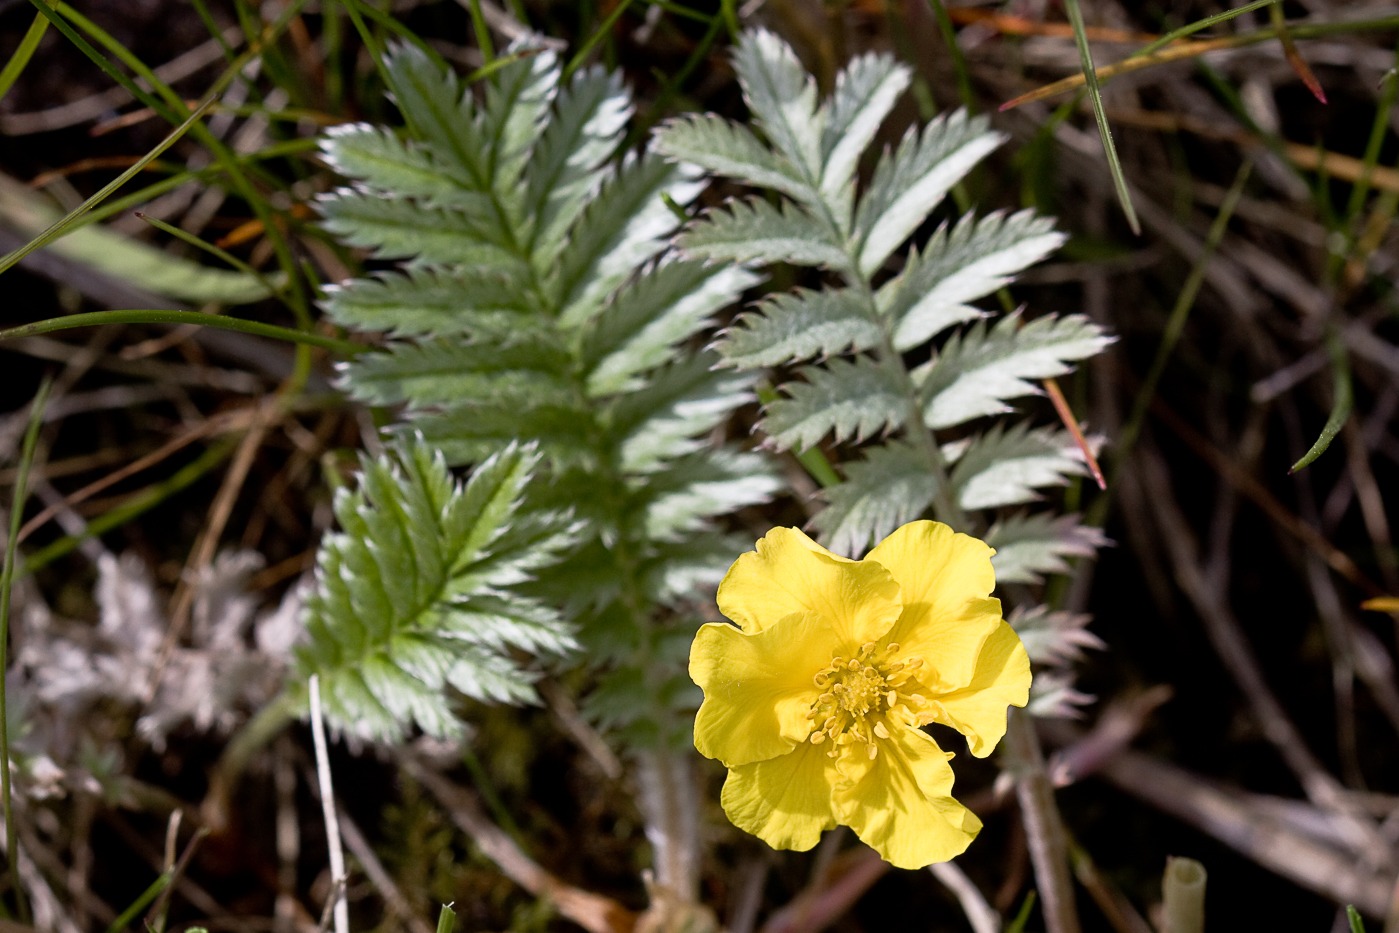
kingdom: Plantae
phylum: Tracheophyta
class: Magnoliopsida
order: Rosales
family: Rosaceae
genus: Argentina
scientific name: Argentina anserina
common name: Gåsepotentil
